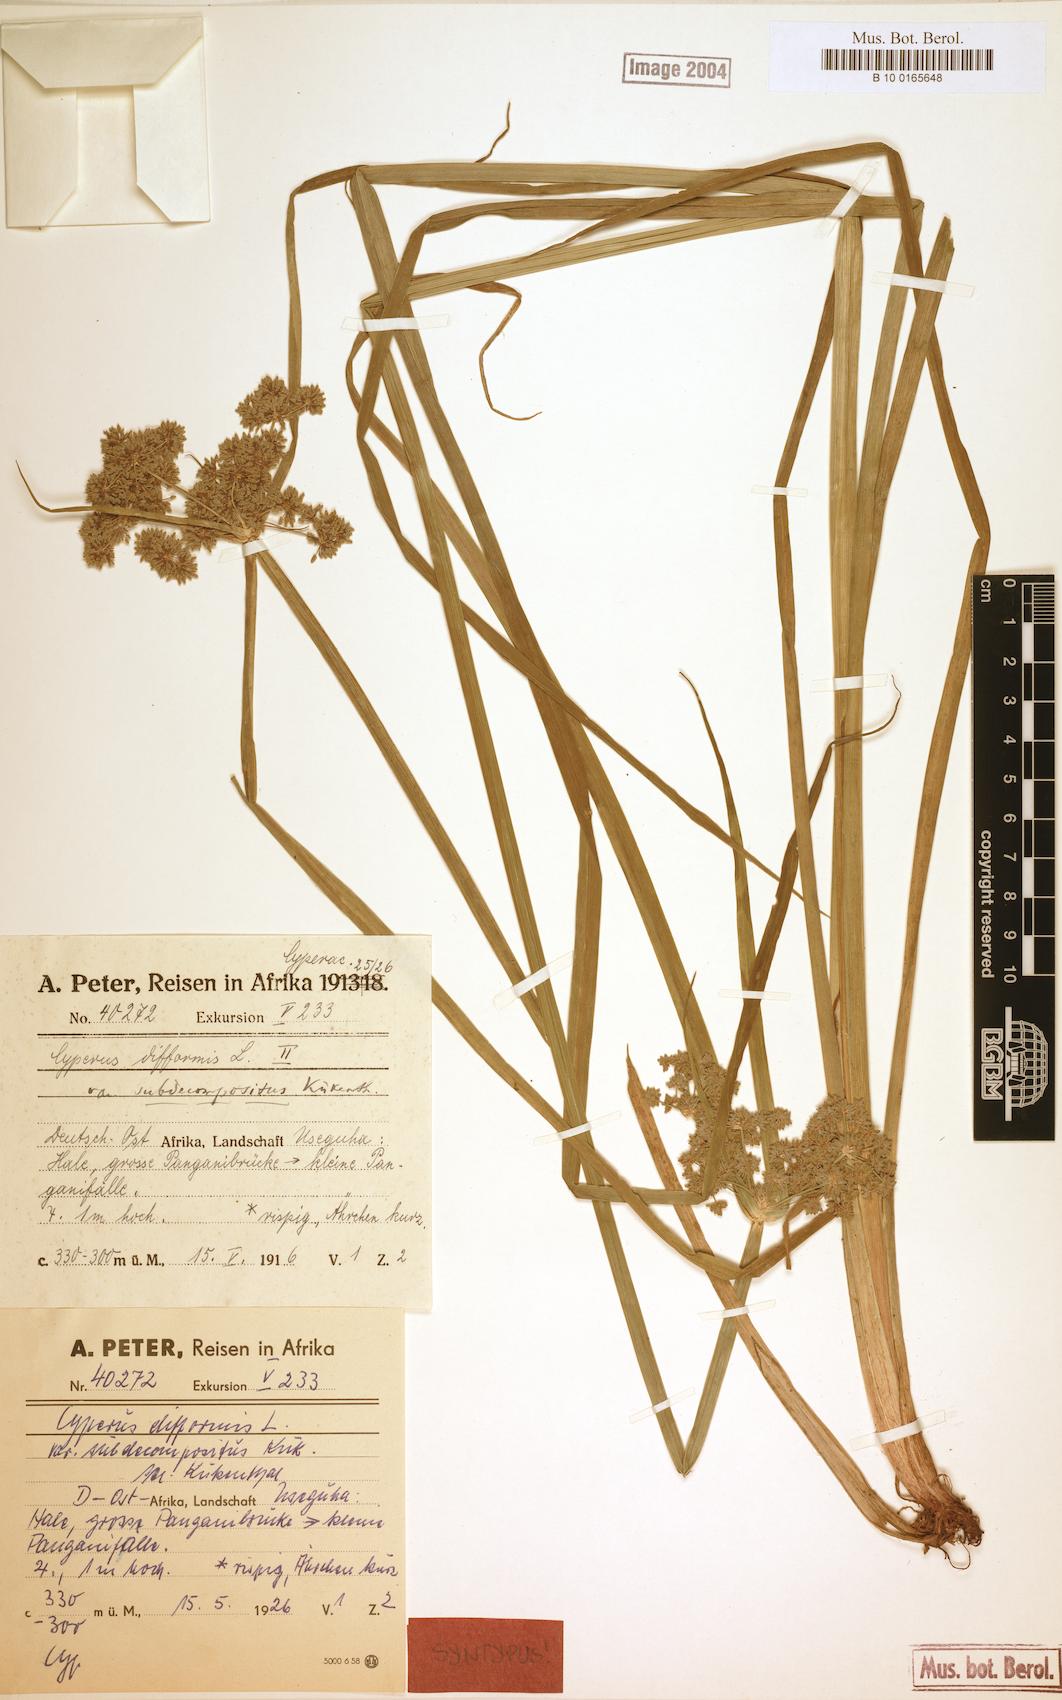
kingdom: Plantae
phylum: Tracheophyta
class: Liliopsida
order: Poales
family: Cyperaceae
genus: Cyperus
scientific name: Cyperus difformis
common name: Variable flatsedge
